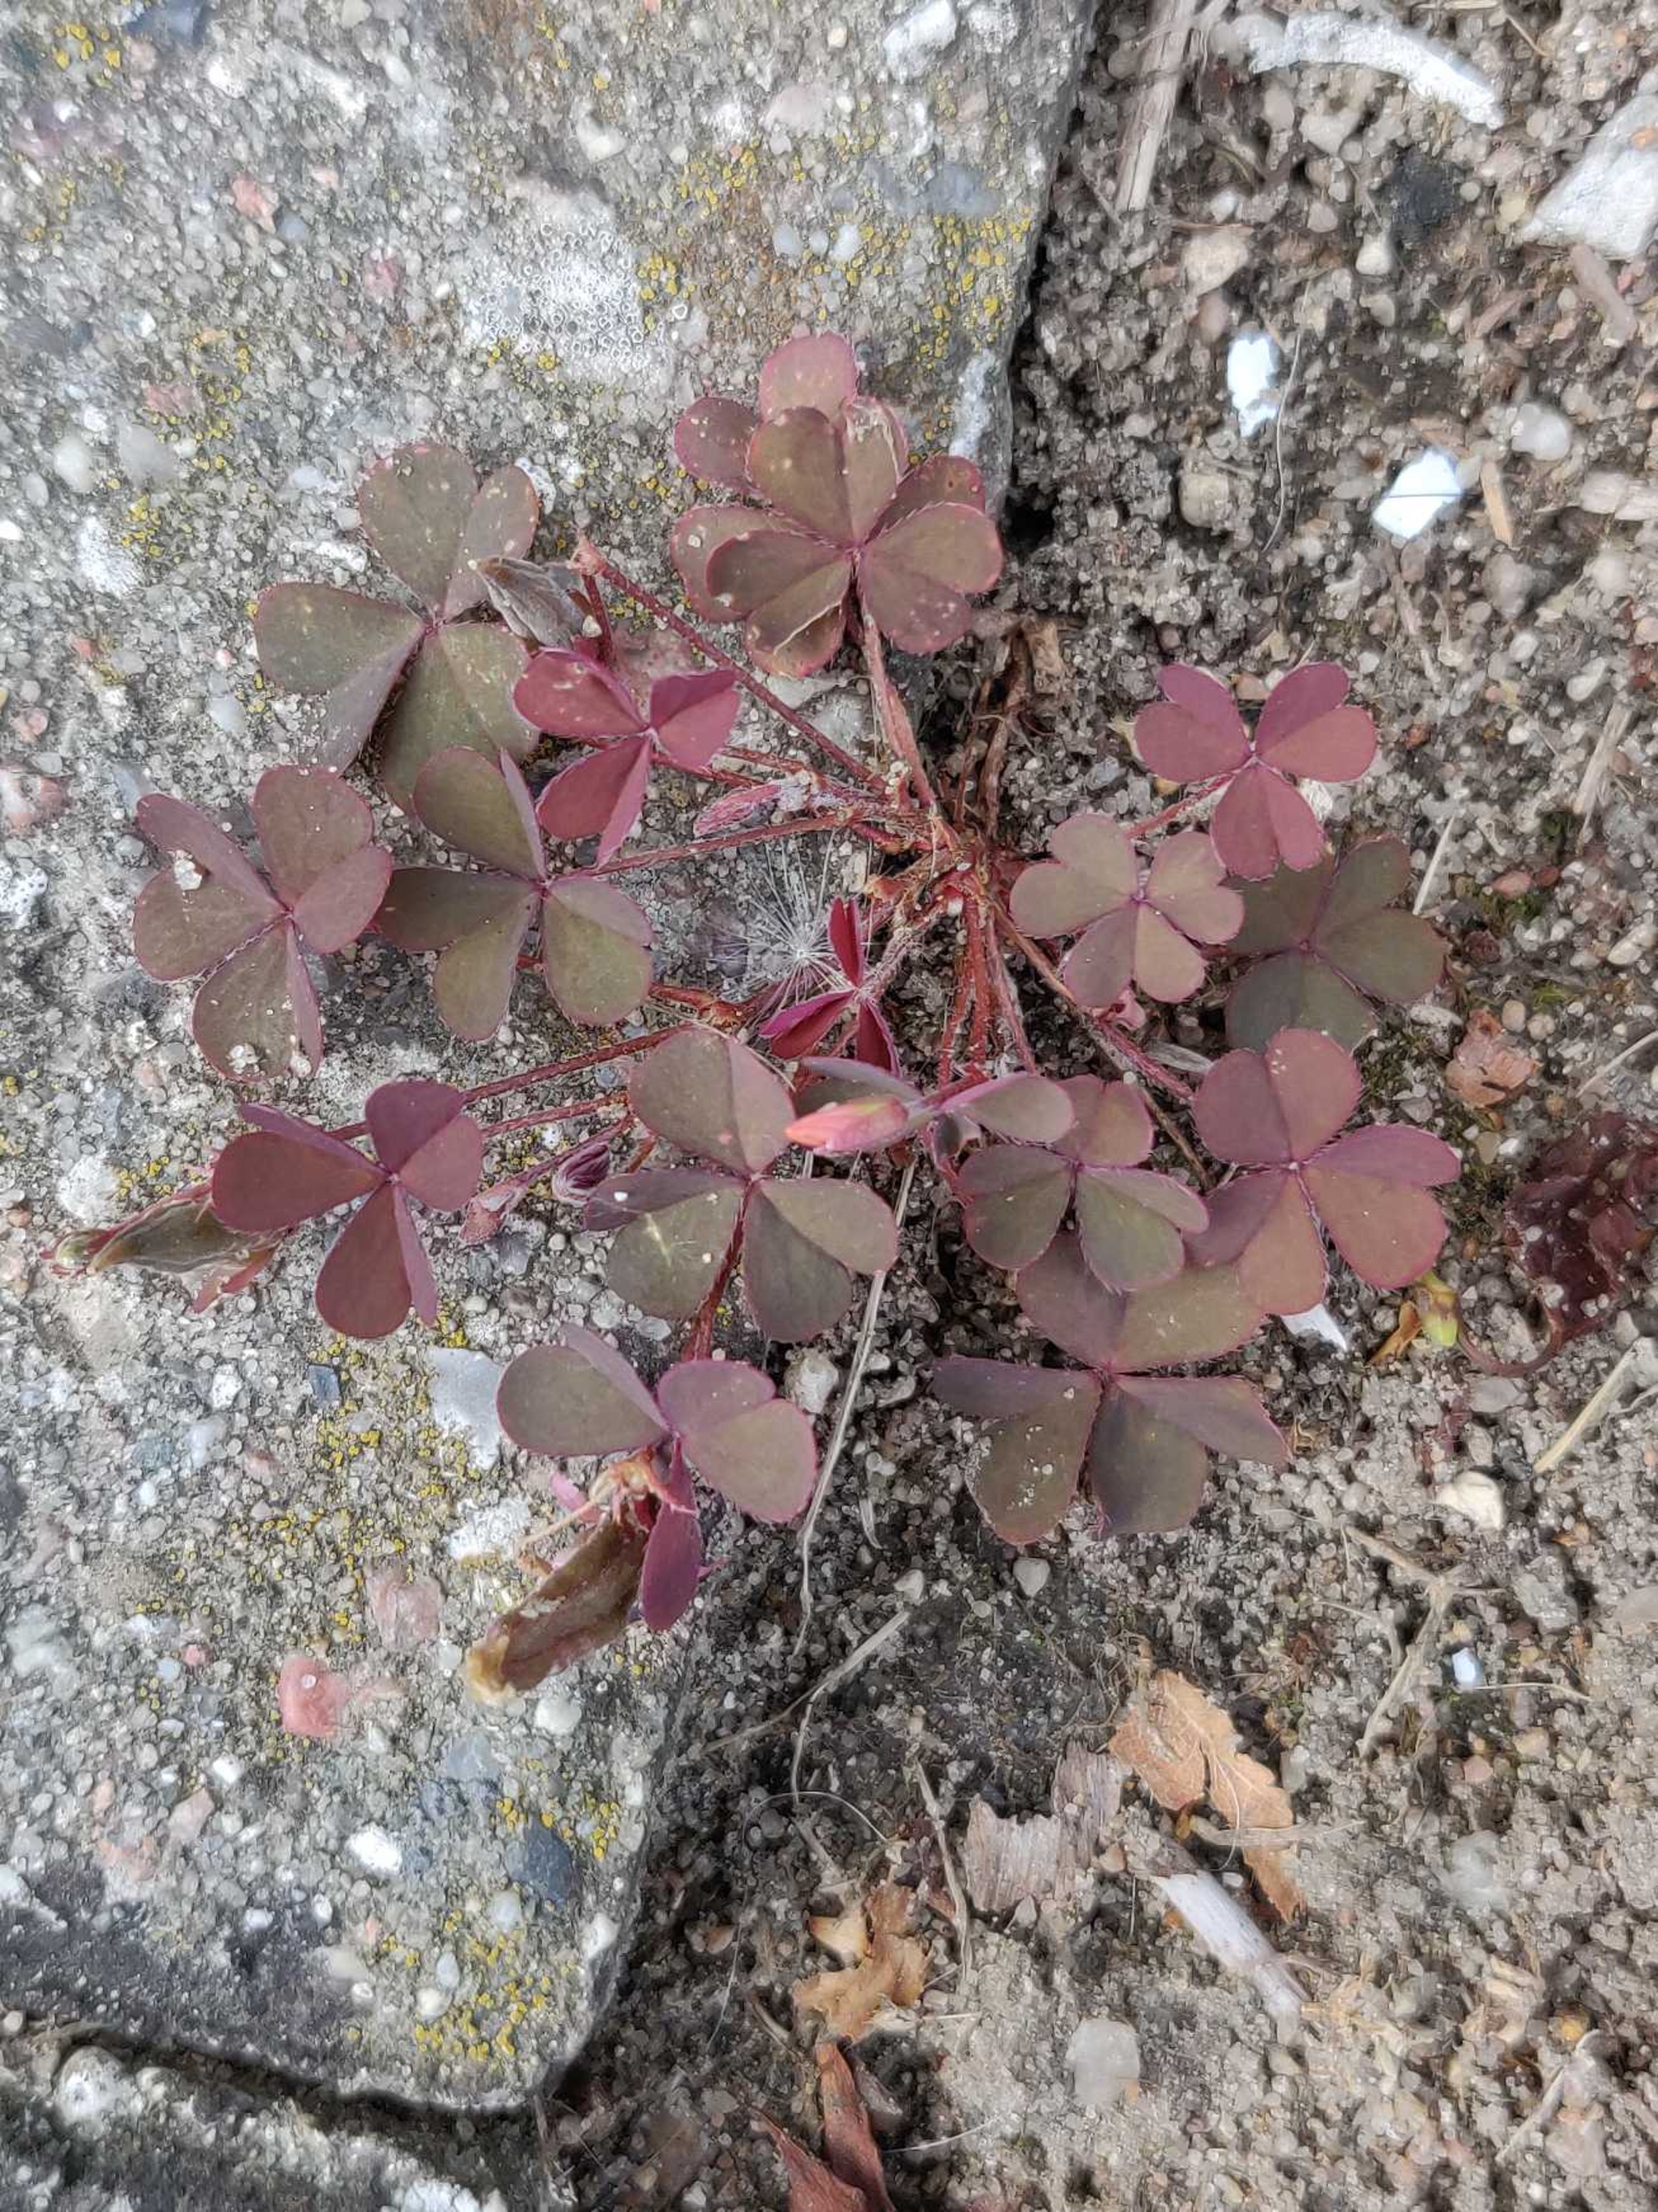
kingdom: Plantae
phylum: Tracheophyta
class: Magnoliopsida
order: Oxalidales
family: Oxalidaceae
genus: Oxalis
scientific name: Oxalis corniculata
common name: Nedliggende surkløver
